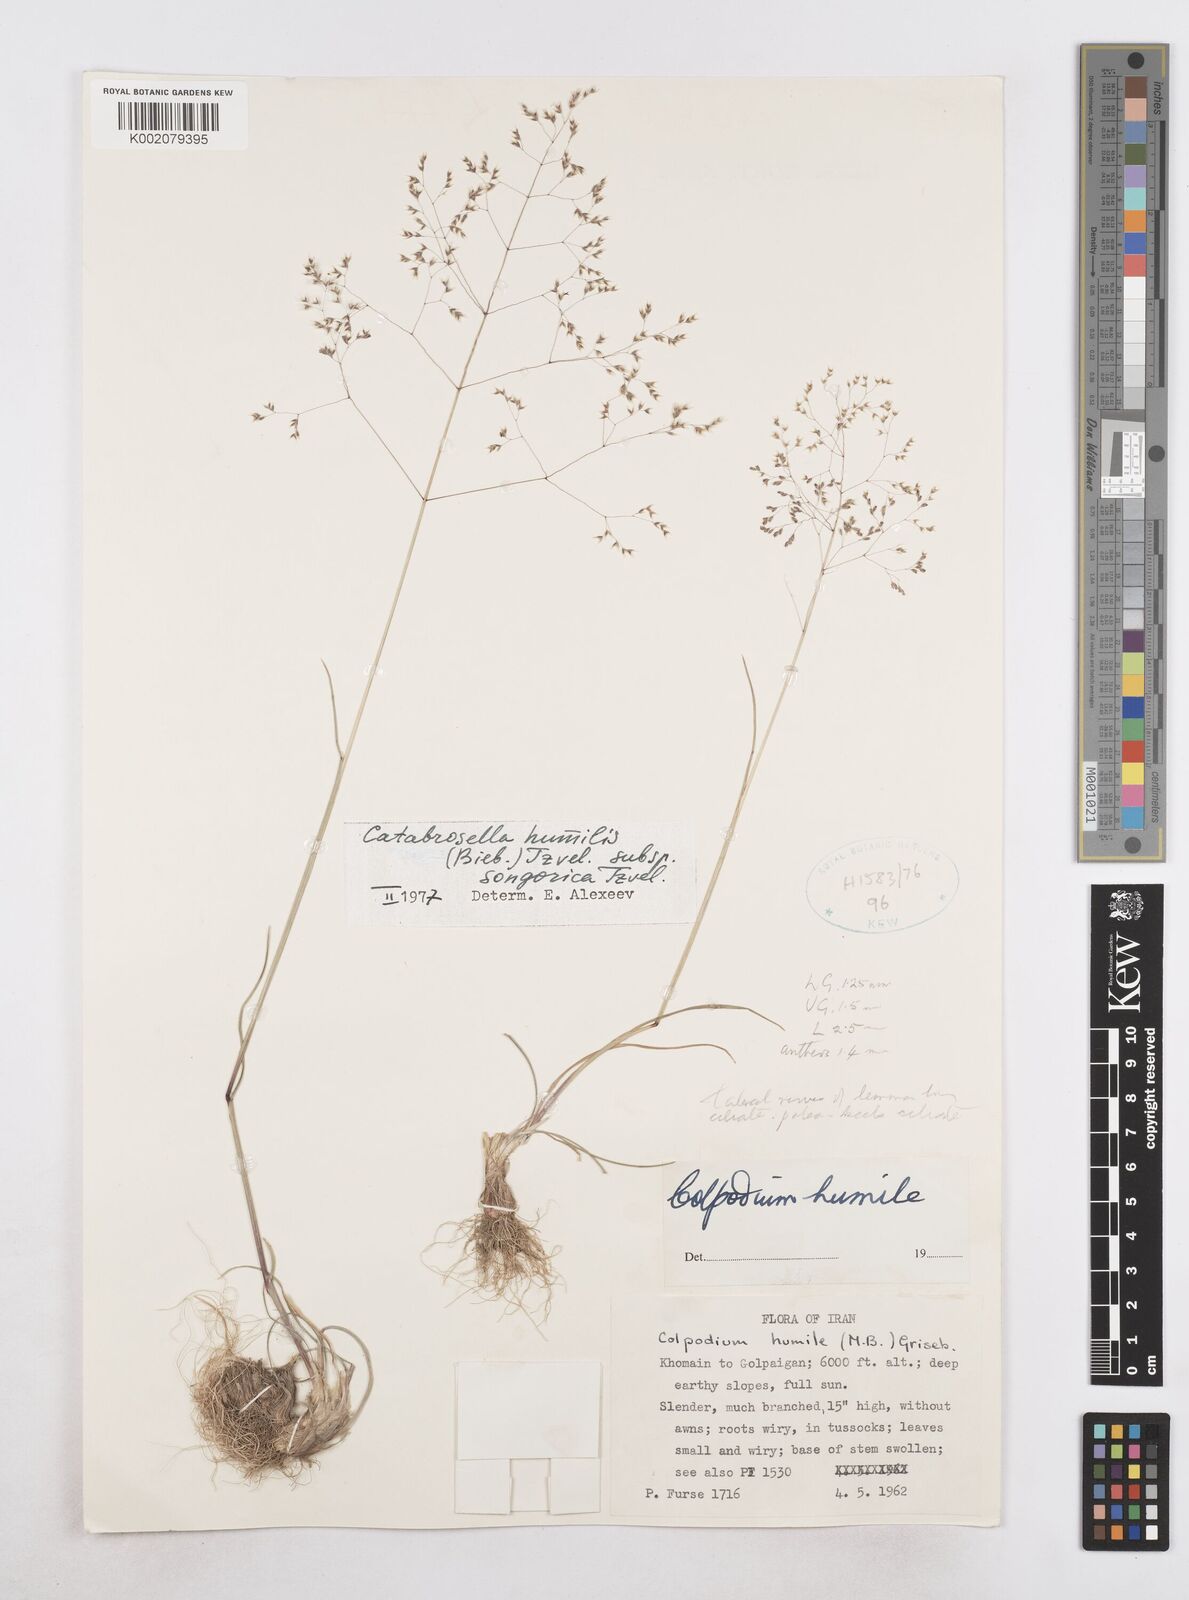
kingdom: Plantae
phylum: Tracheophyta
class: Liliopsida
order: Poales
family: Poaceae
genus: Catabrosella
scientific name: Catabrosella humilis
